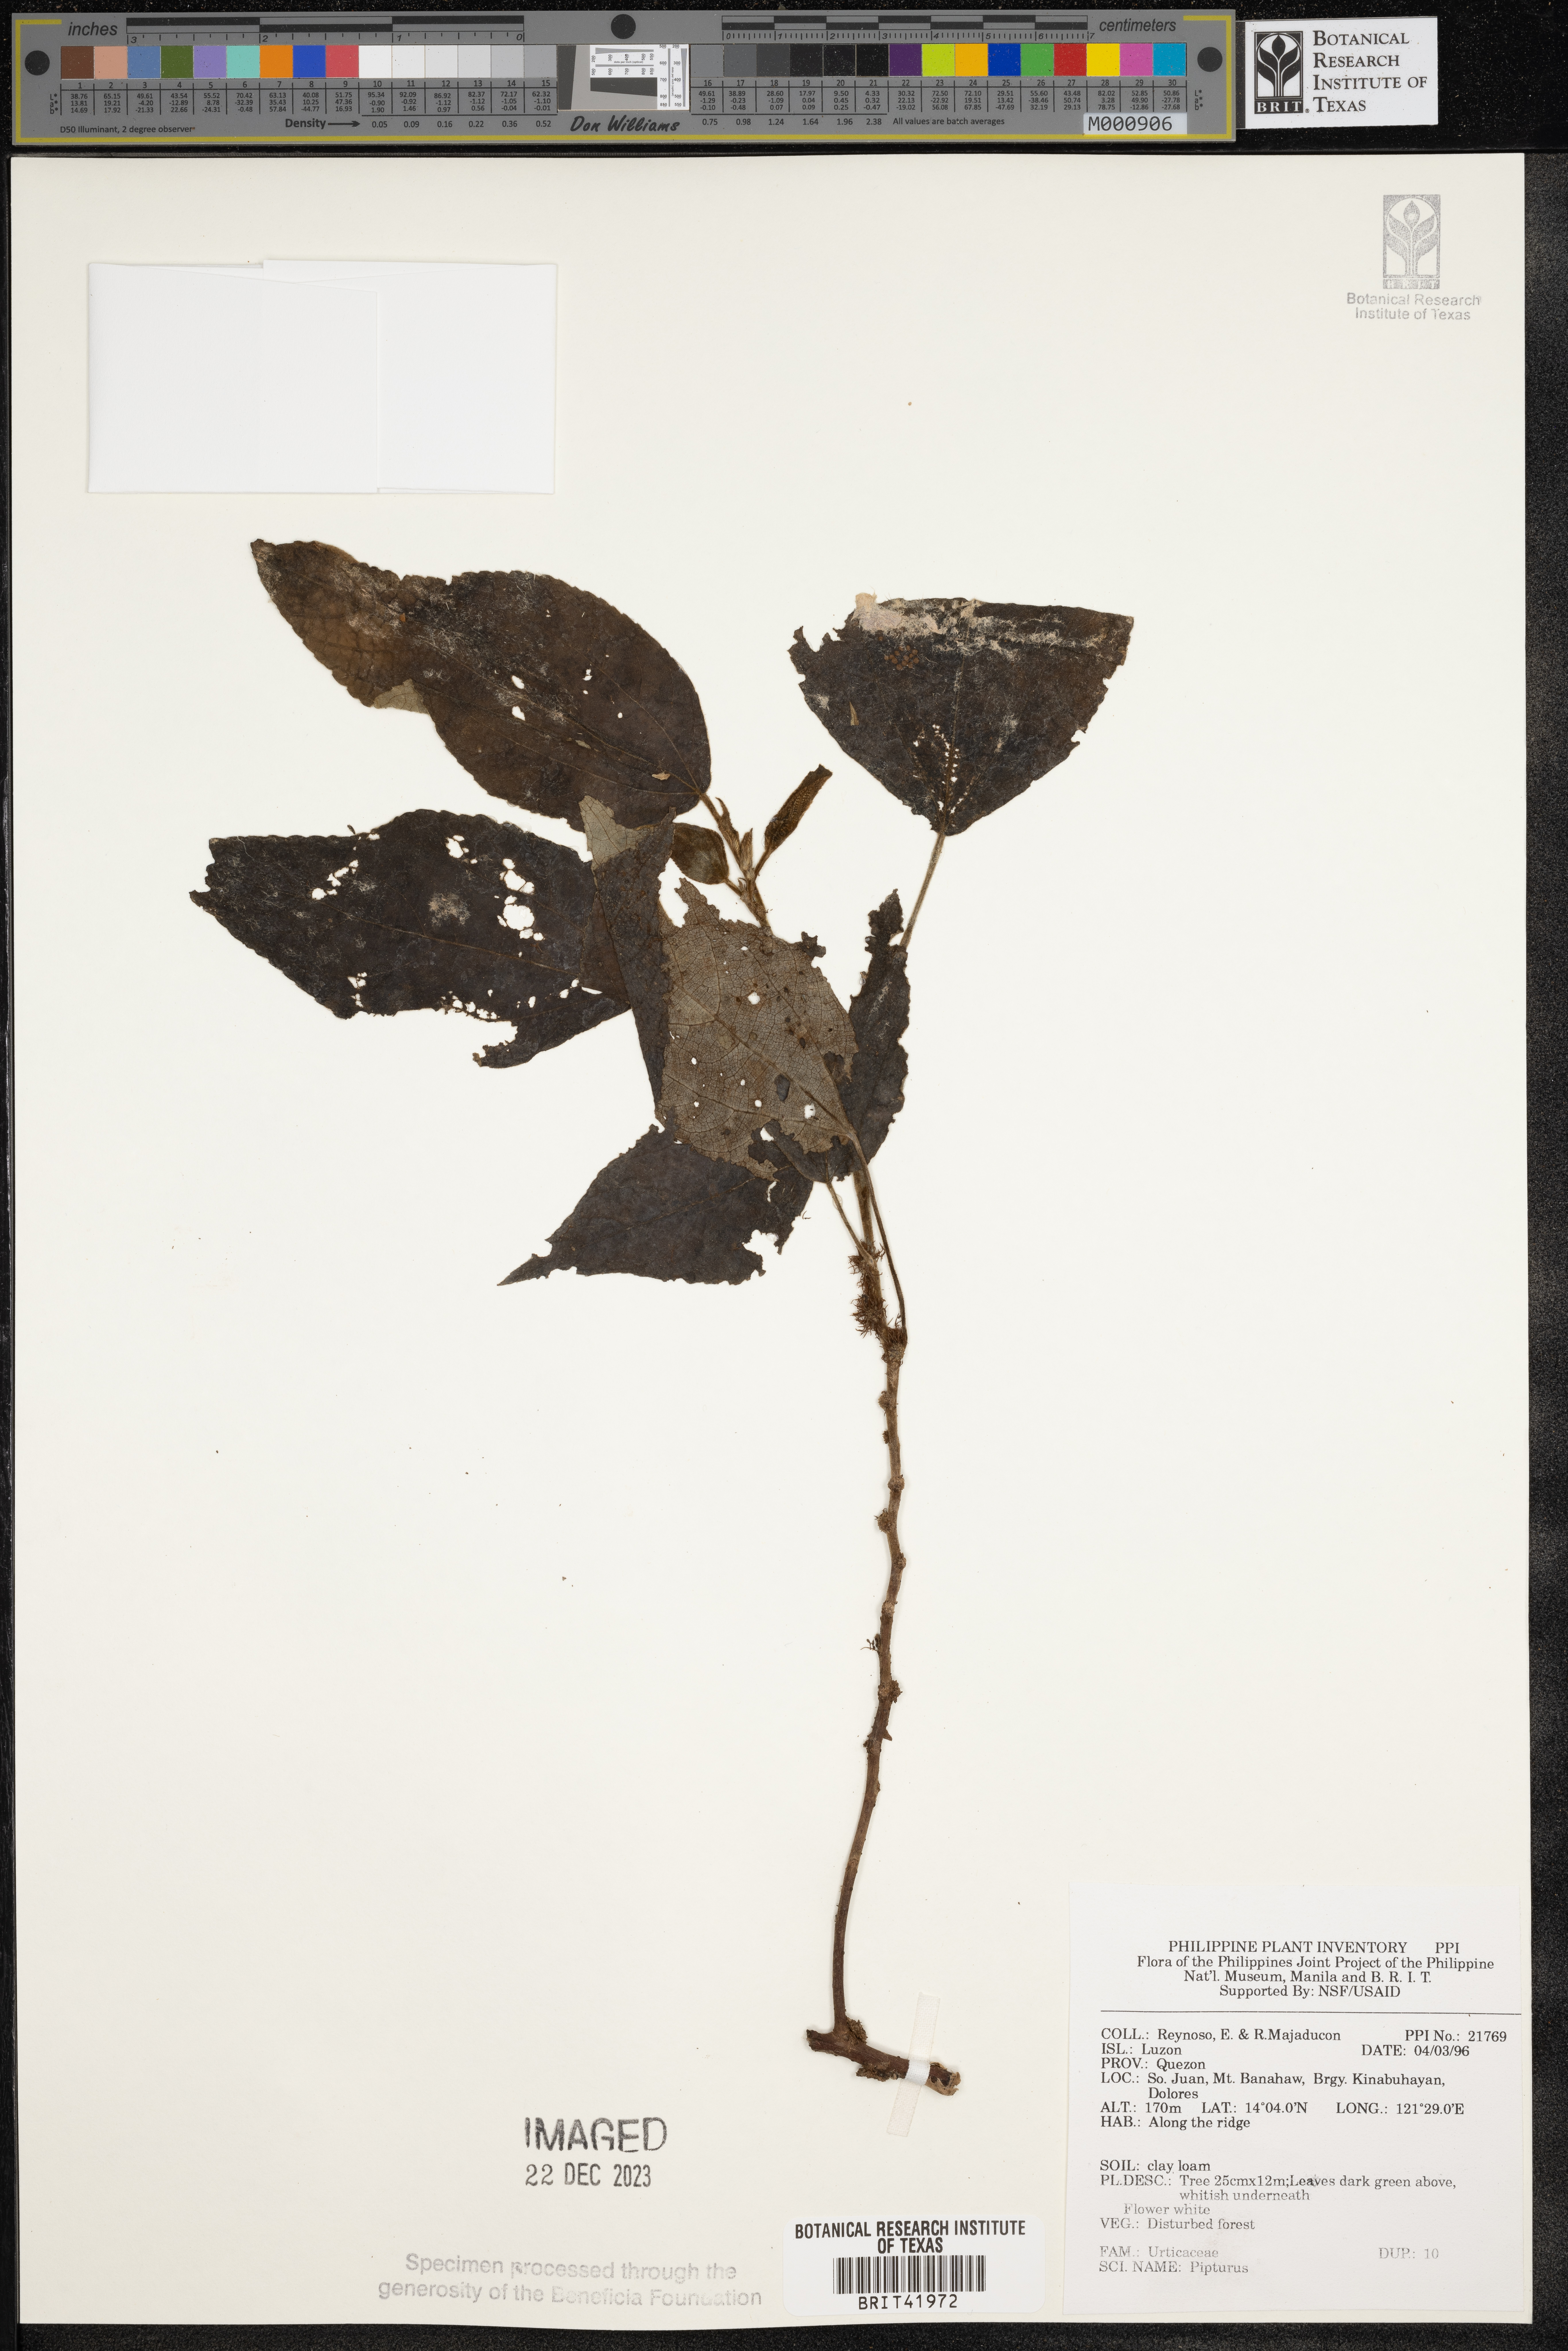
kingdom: Plantae
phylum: Tracheophyta
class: Magnoliopsida
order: Rosales
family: Urticaceae
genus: Pipturus
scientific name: Pipturus
